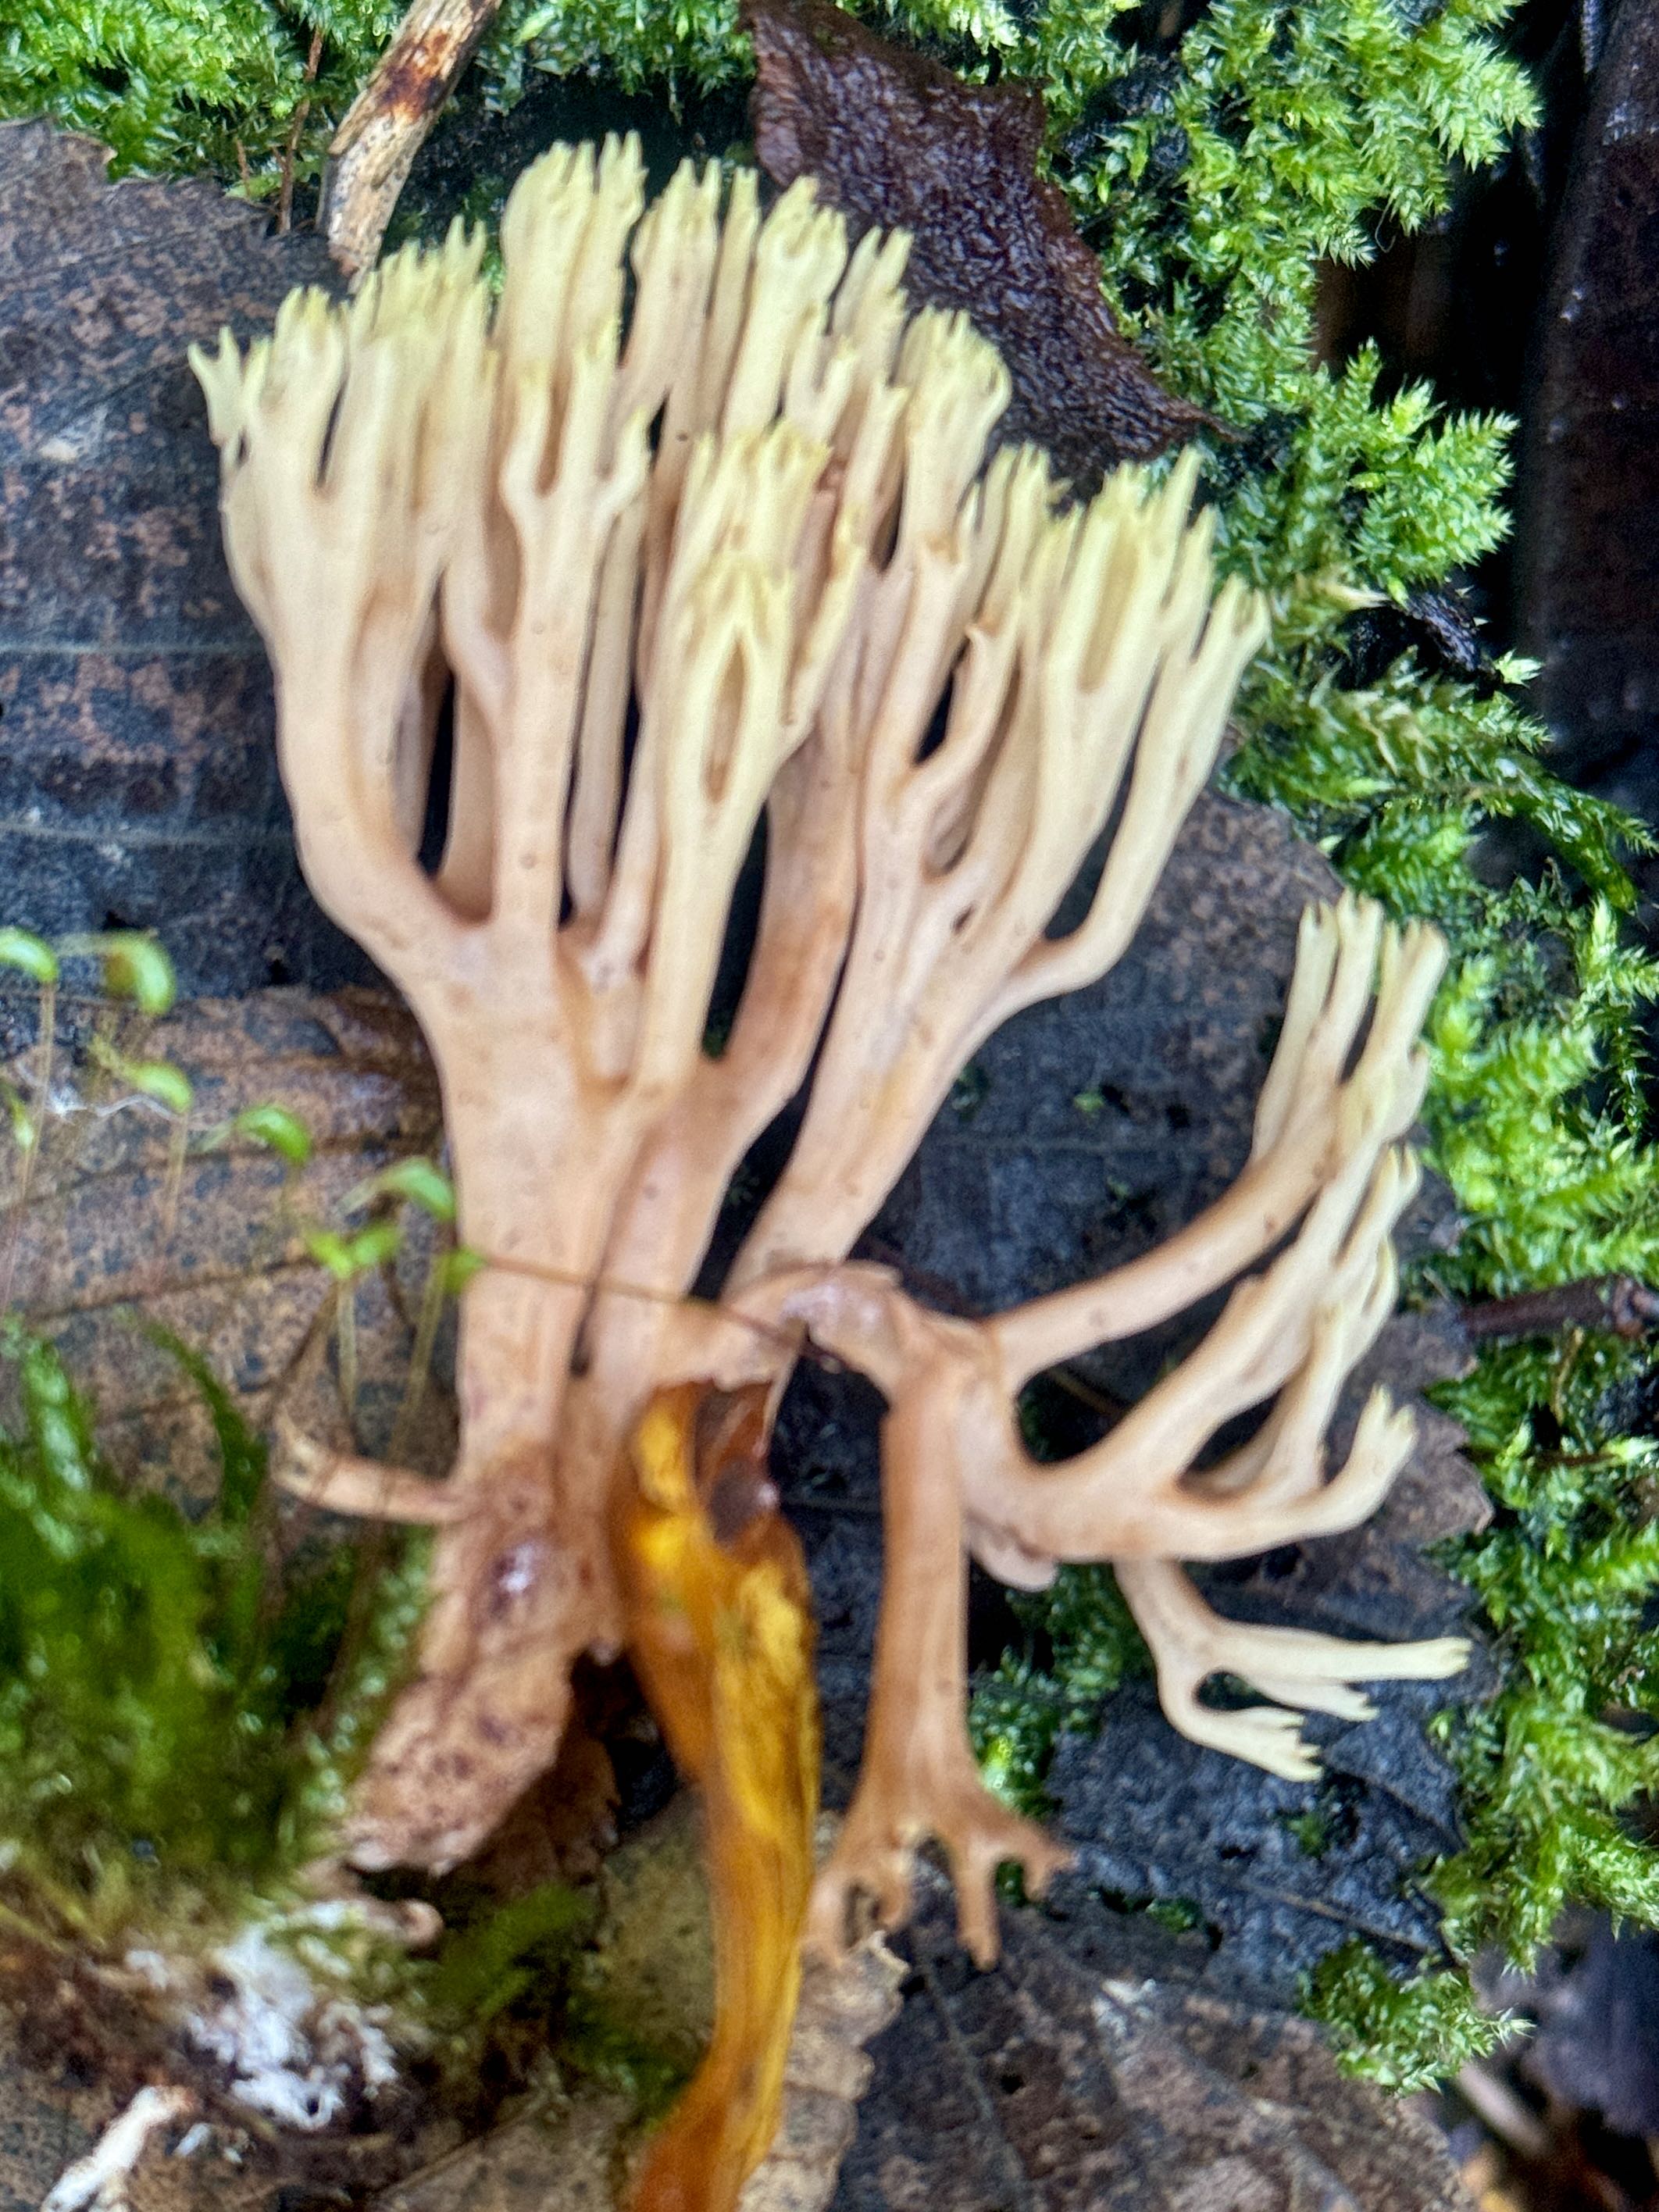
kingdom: Fungi
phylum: Basidiomycota
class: Agaricomycetes
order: Gomphales
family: Gomphaceae
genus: Ramaria
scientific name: Ramaria stricta
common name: rank koralsvamp
